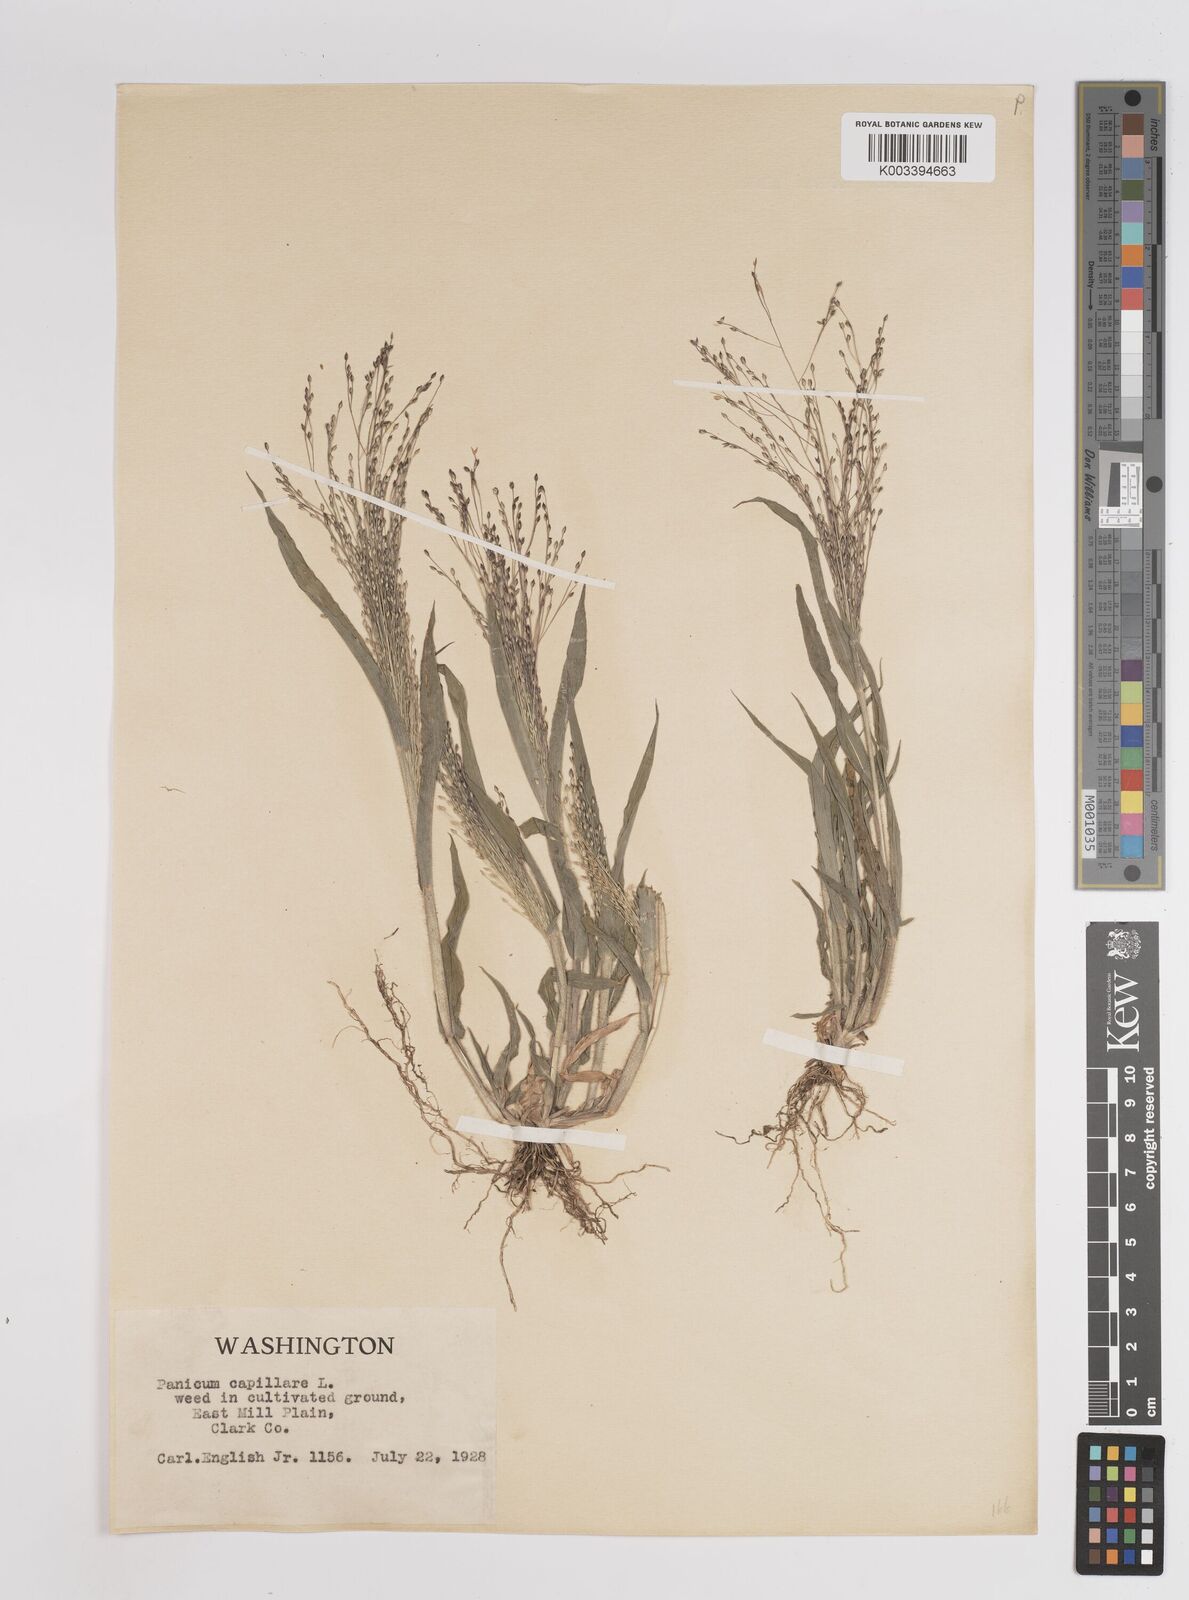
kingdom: Plantae
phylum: Tracheophyta
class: Liliopsida
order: Poales
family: Poaceae
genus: Panicum
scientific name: Panicum capillare
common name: Witch-grass
